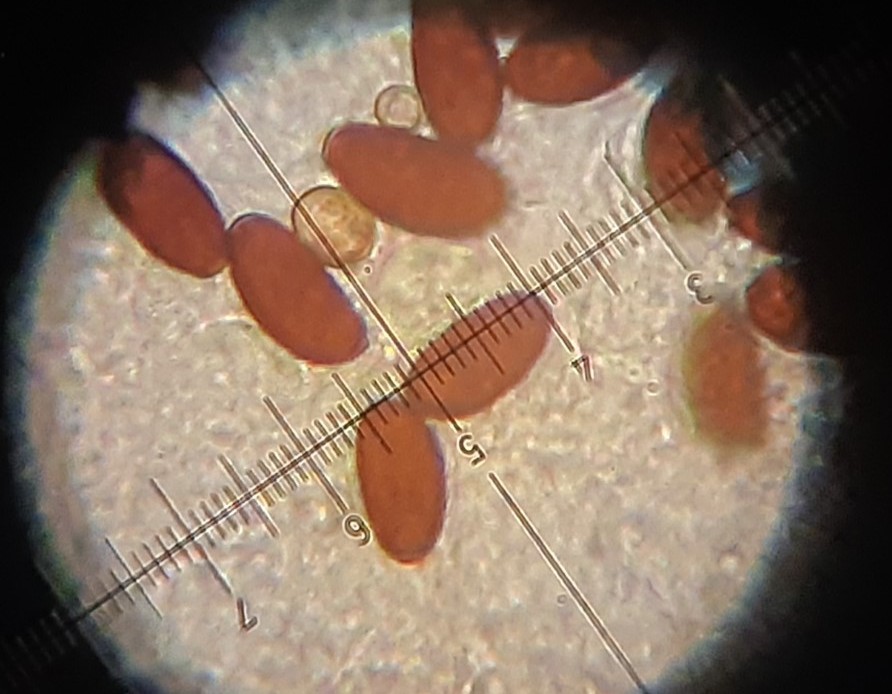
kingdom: Fungi
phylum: Basidiomycota
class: Agaricomycetes
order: Agaricales
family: Psathyrellaceae
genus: Psathyrella
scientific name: Psathyrella microrhiza
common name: rod-mørkhat
